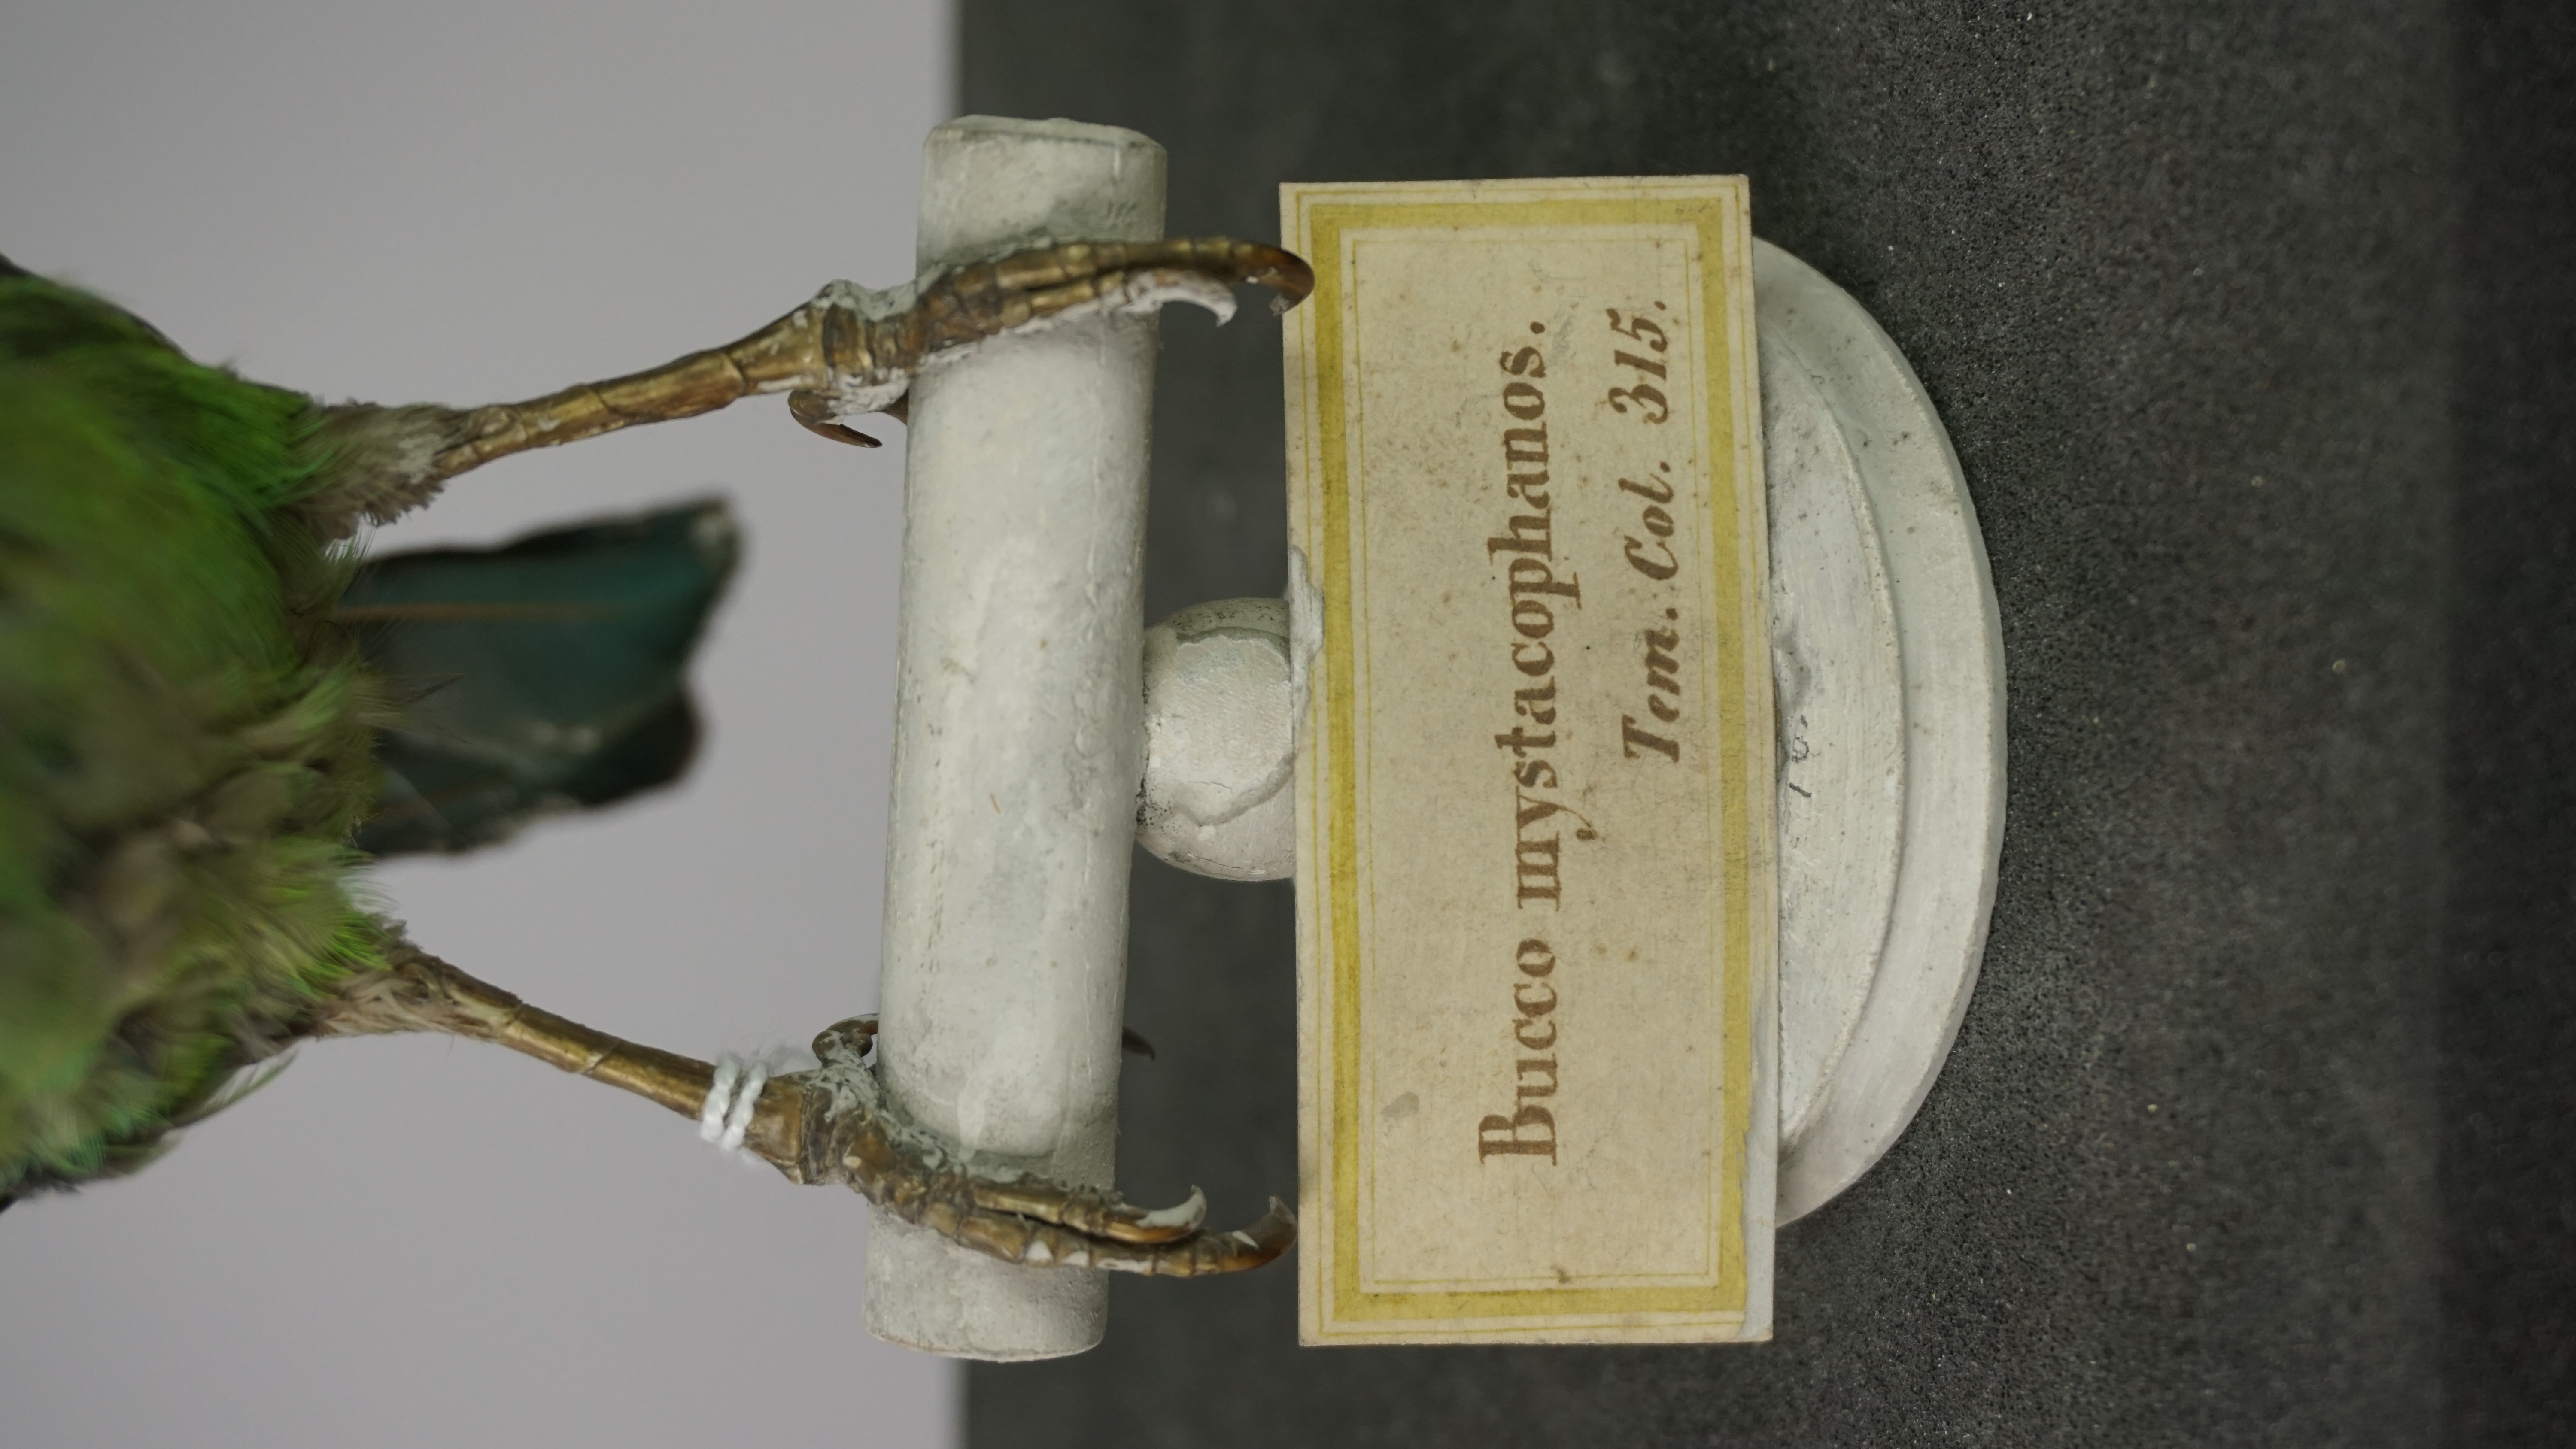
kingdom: Animalia
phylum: Chordata
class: Aves
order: Piciformes
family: Megalaimidae
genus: Psilopogon
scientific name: Psilopogon mystacophanos
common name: Red-throated barbet
